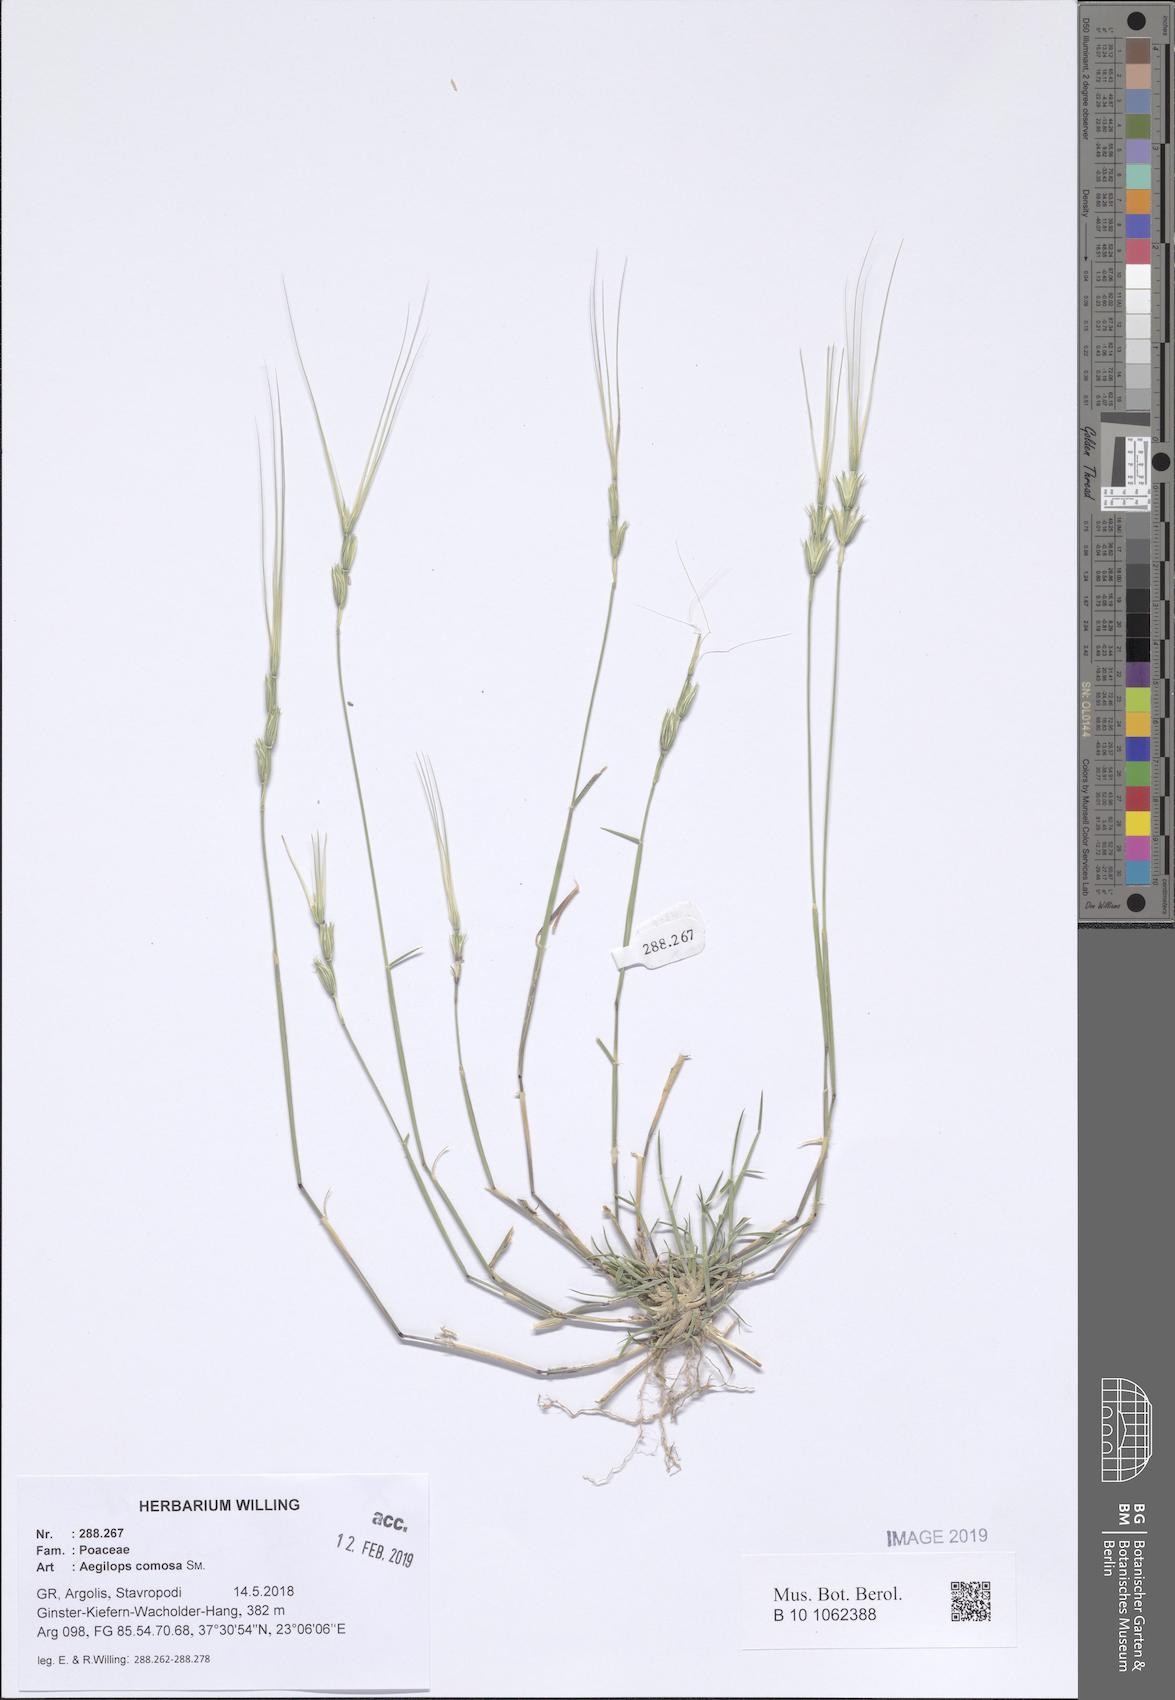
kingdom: Plantae
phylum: Tracheophyta
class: Liliopsida
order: Poales
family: Poaceae
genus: Aegilops
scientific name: Aegilops comosa
